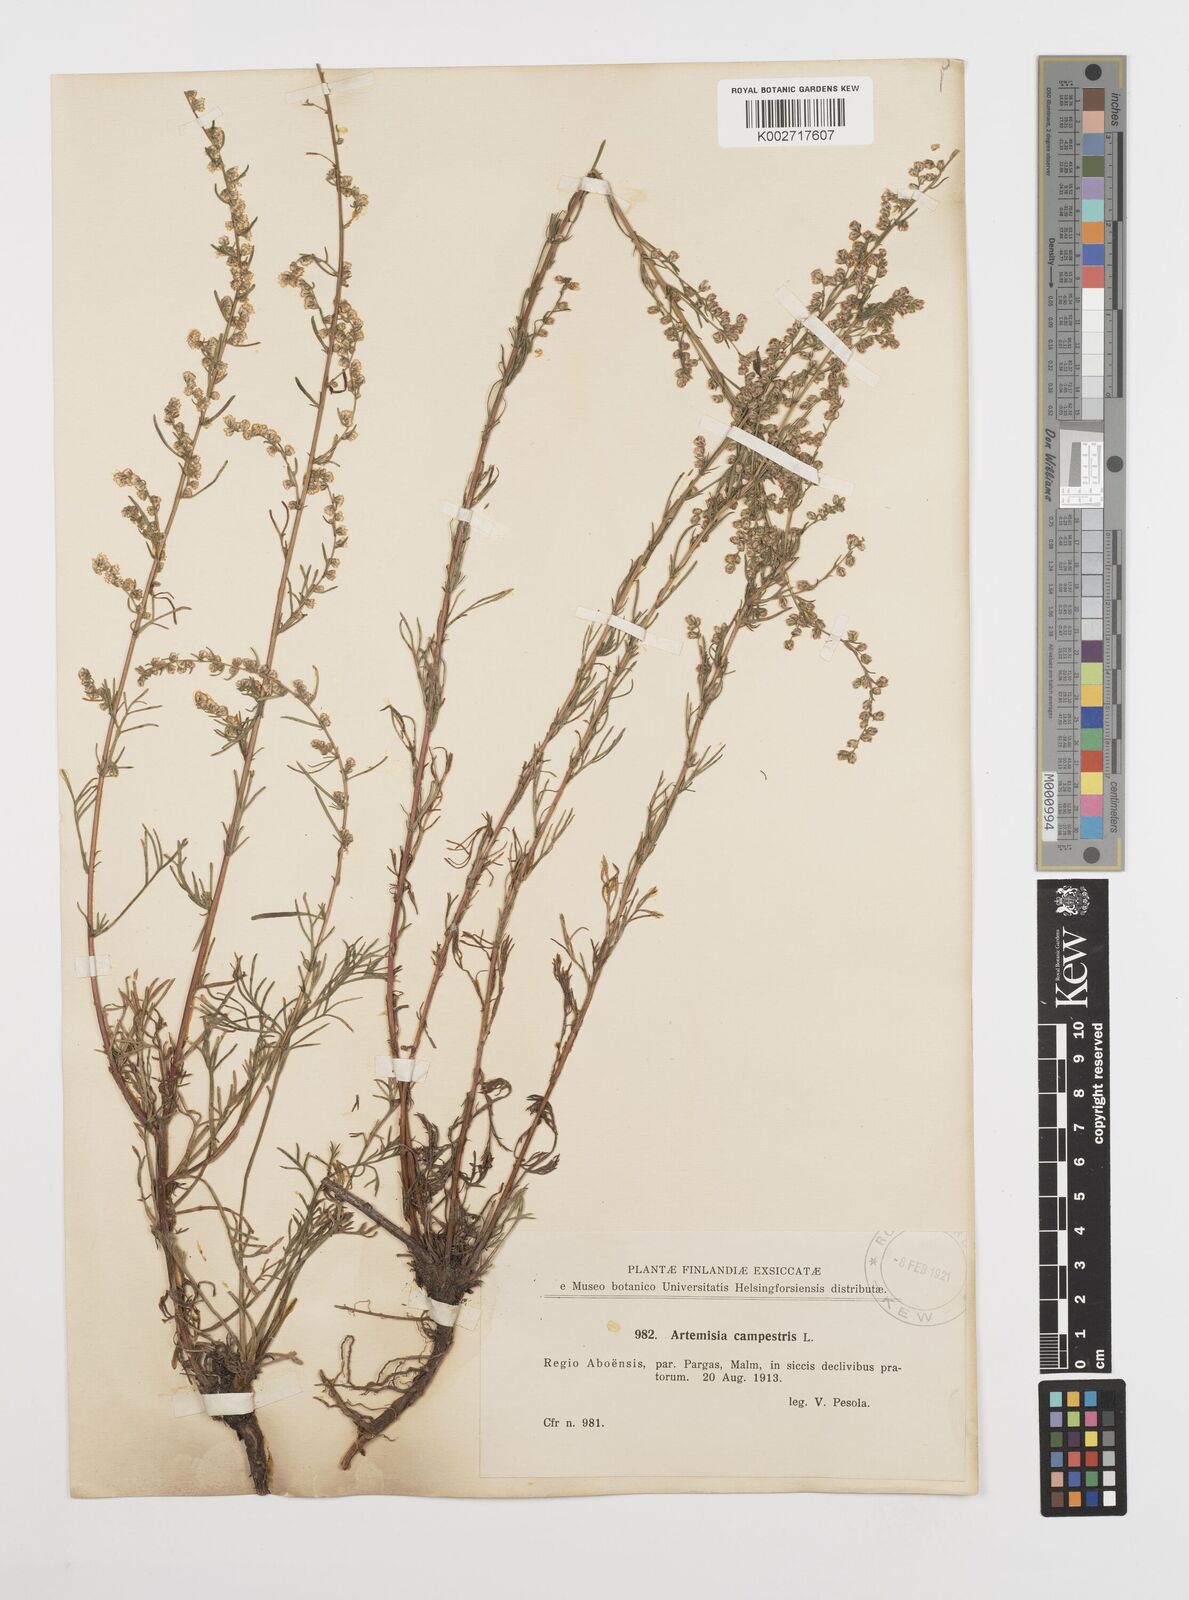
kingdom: Plantae
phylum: Tracheophyta
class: Magnoliopsida
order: Asterales
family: Asteraceae
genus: Artemisia
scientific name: Artemisia campestris
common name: Field wormwood
